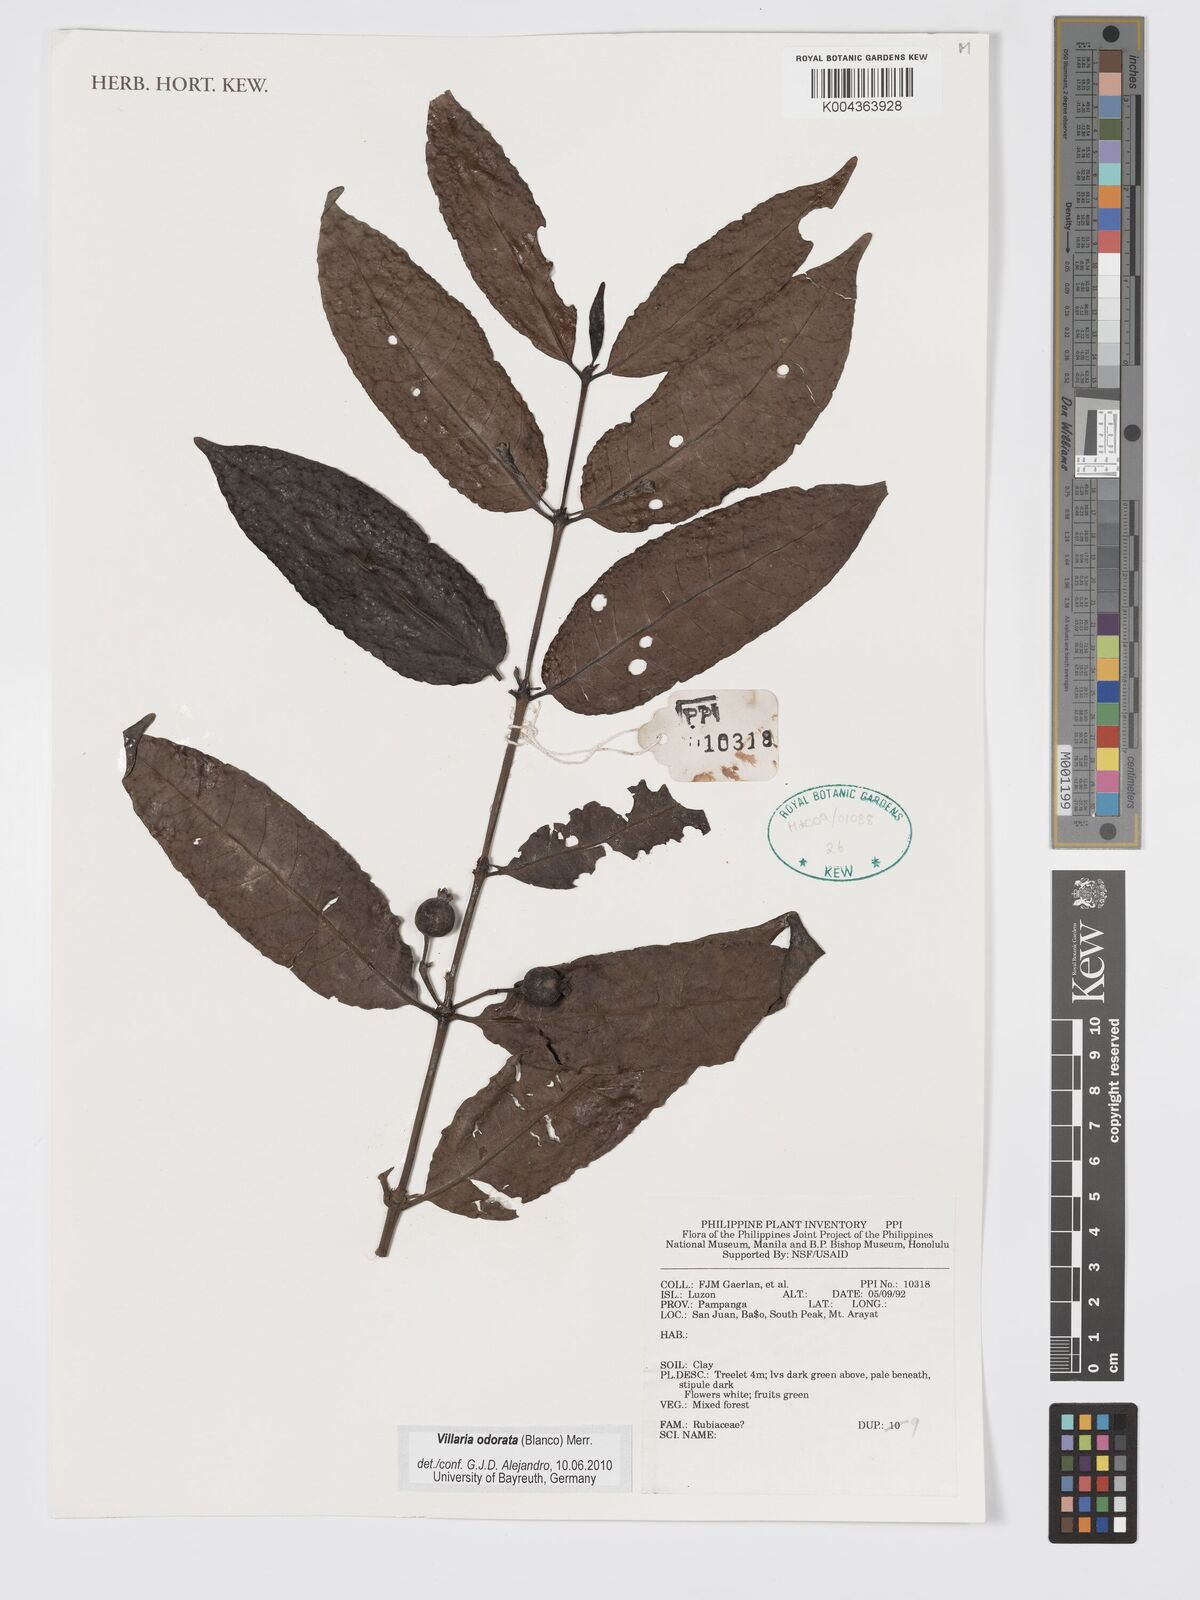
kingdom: Plantae
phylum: Tracheophyta
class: Magnoliopsida
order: Gentianales
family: Rubiaceae
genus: Villaria
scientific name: Villaria odorata
